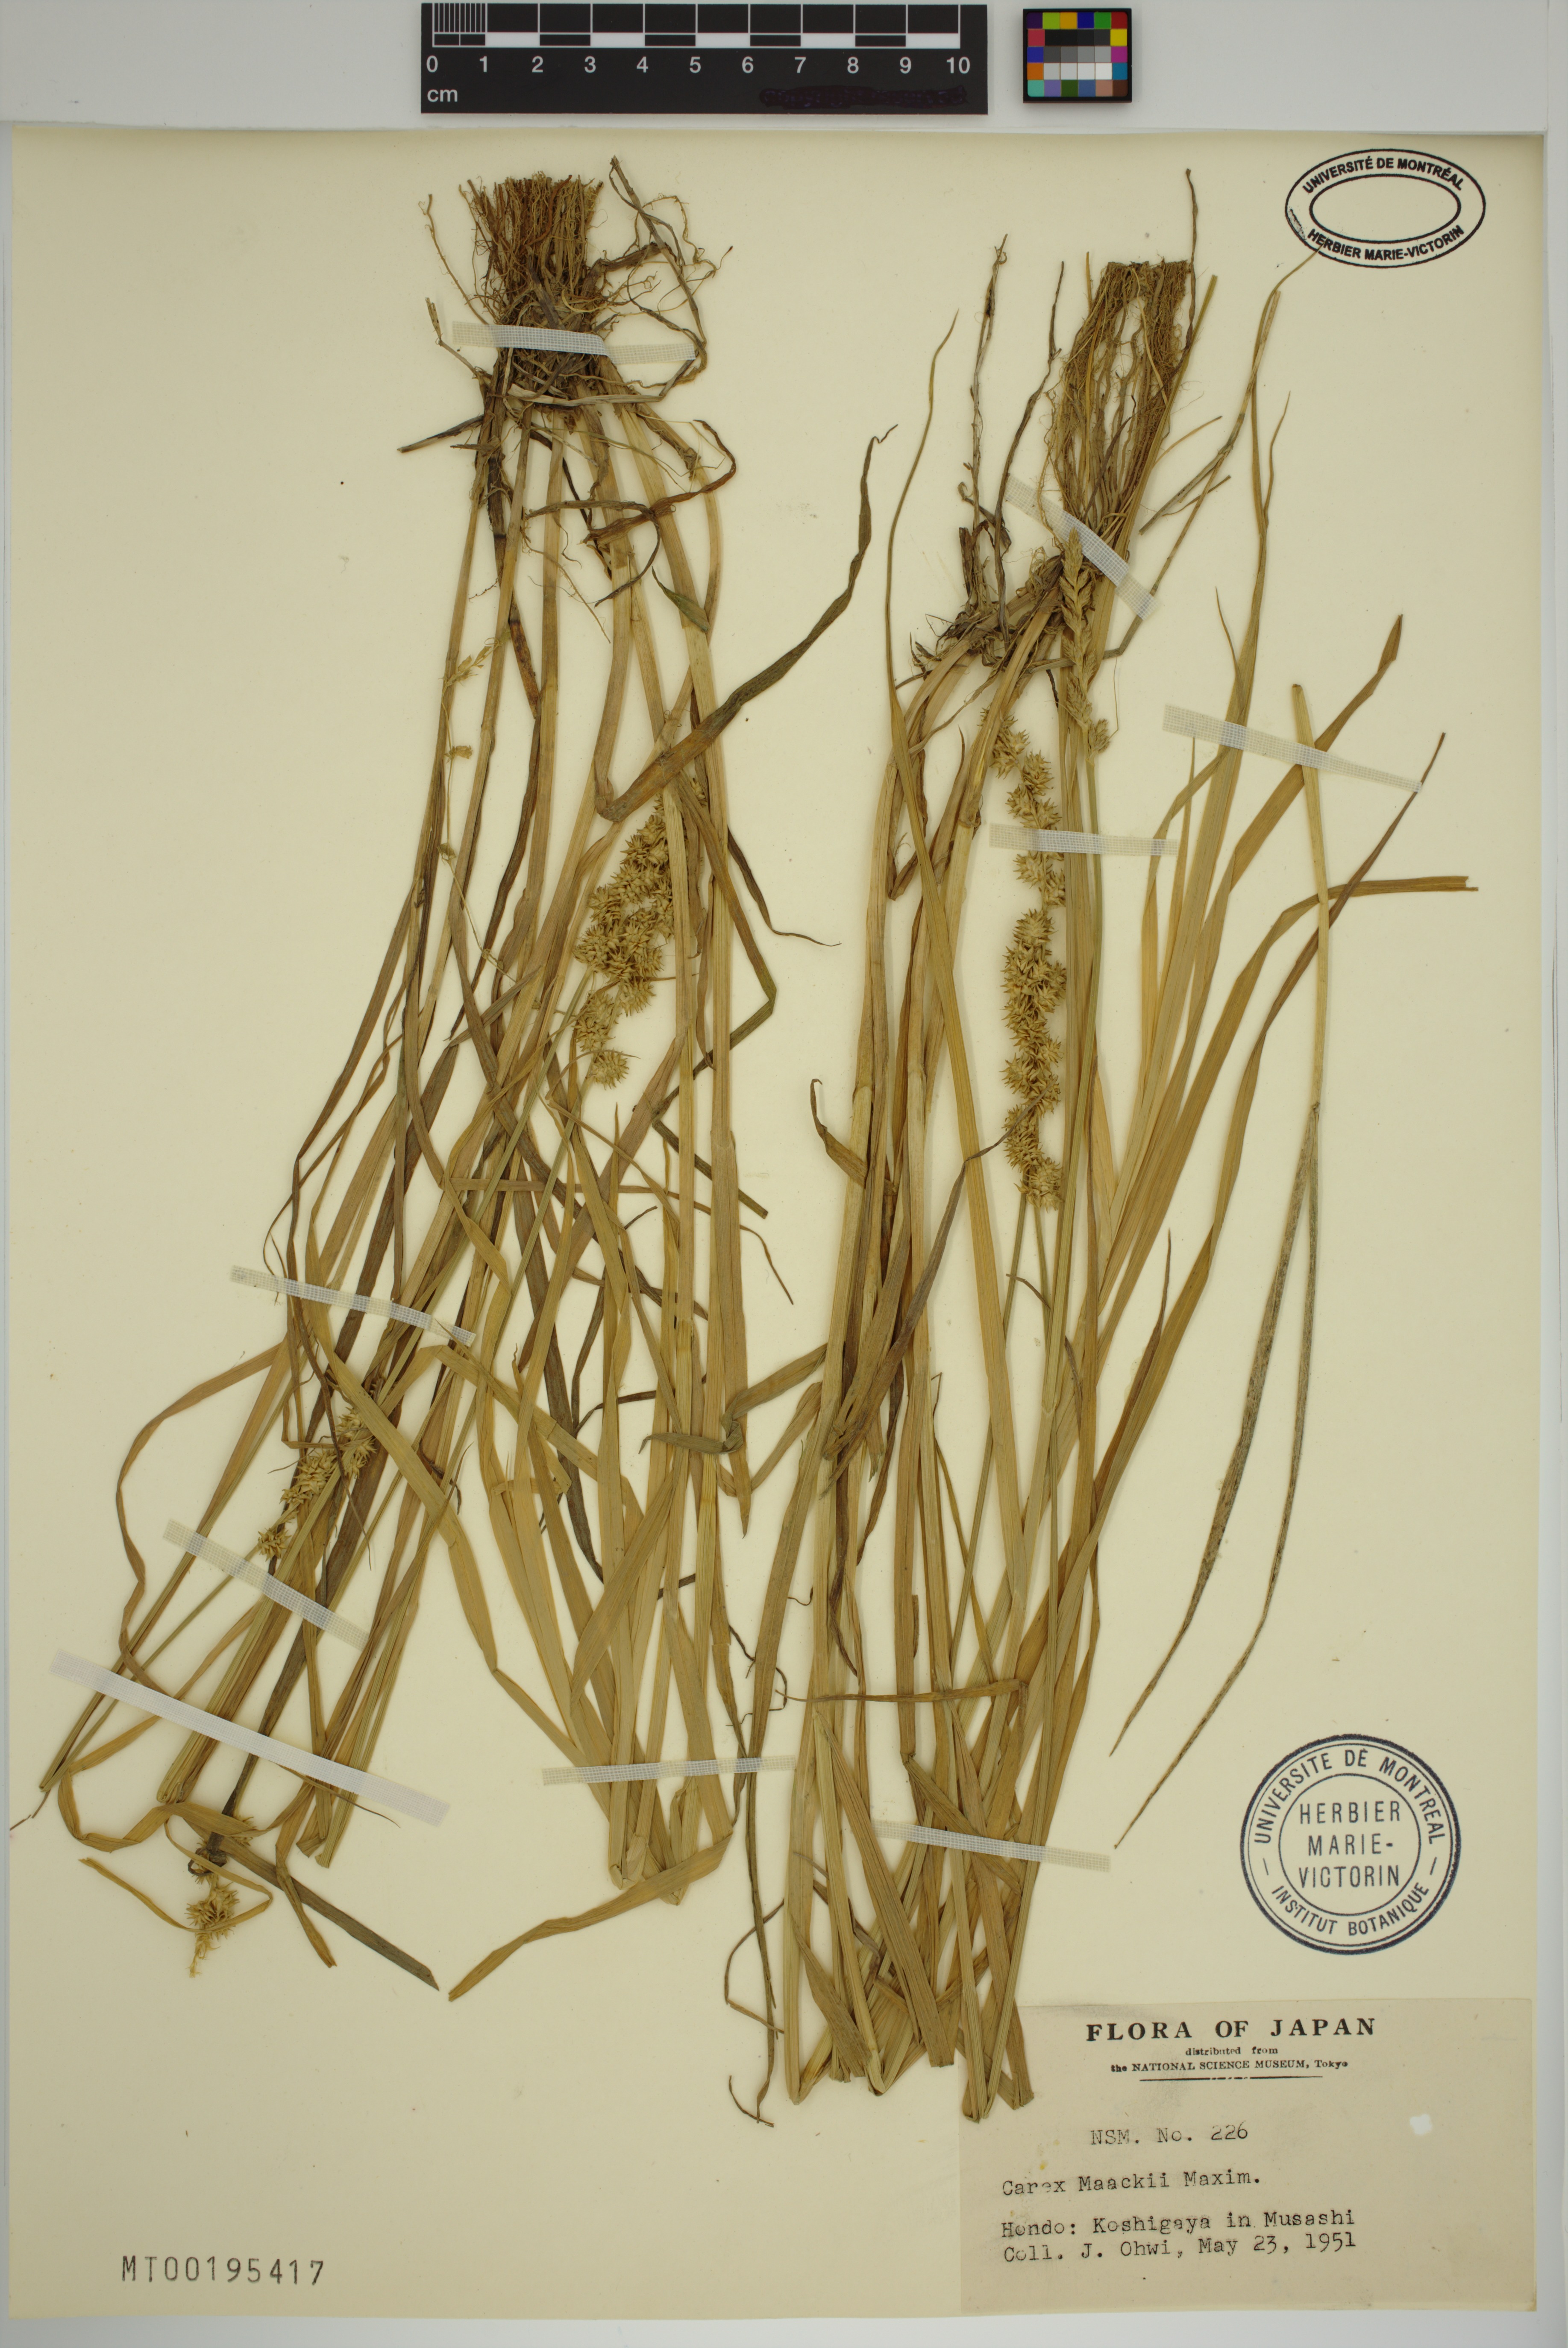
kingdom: Plantae
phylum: Tracheophyta
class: Liliopsida
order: Poales
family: Cyperaceae
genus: Carex
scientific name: Carex maackii
